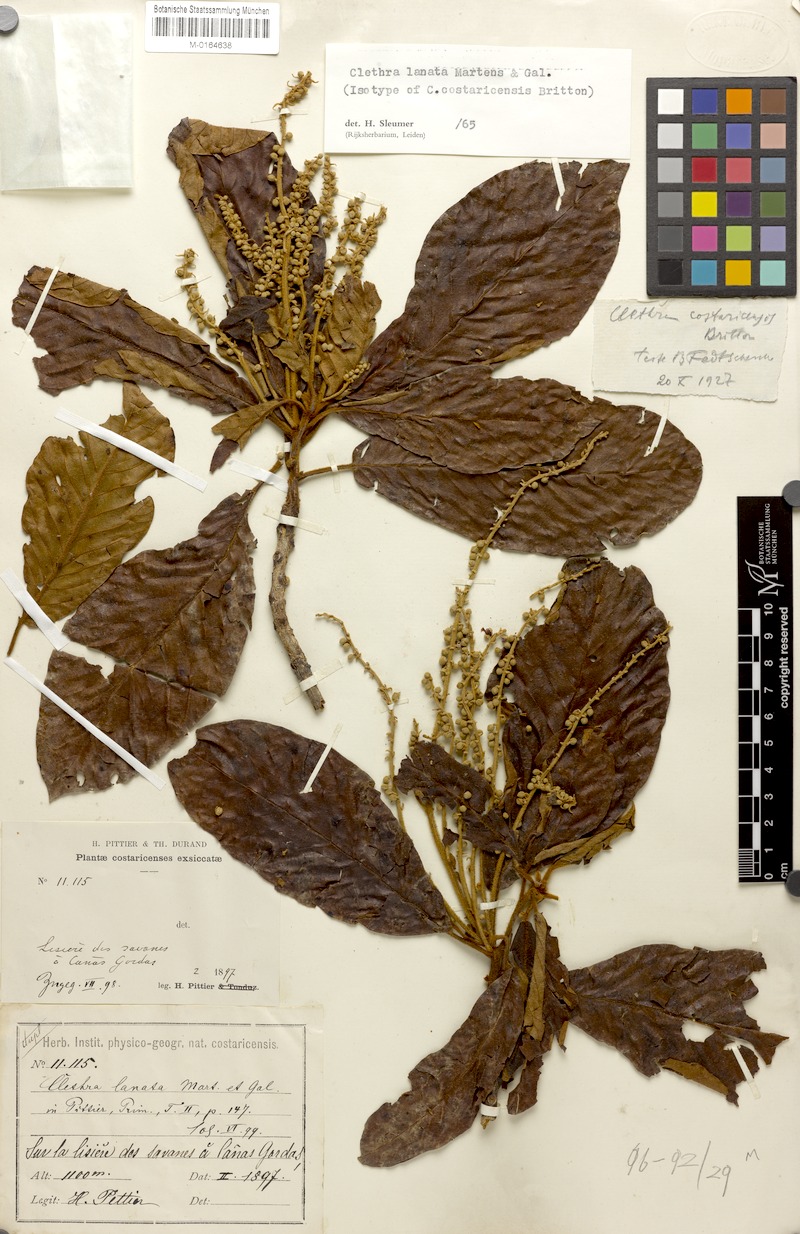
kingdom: Plantae
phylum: Tracheophyta
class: Magnoliopsida
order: Ericales
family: Clethraceae
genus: Clethra
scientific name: Clethra lanata
